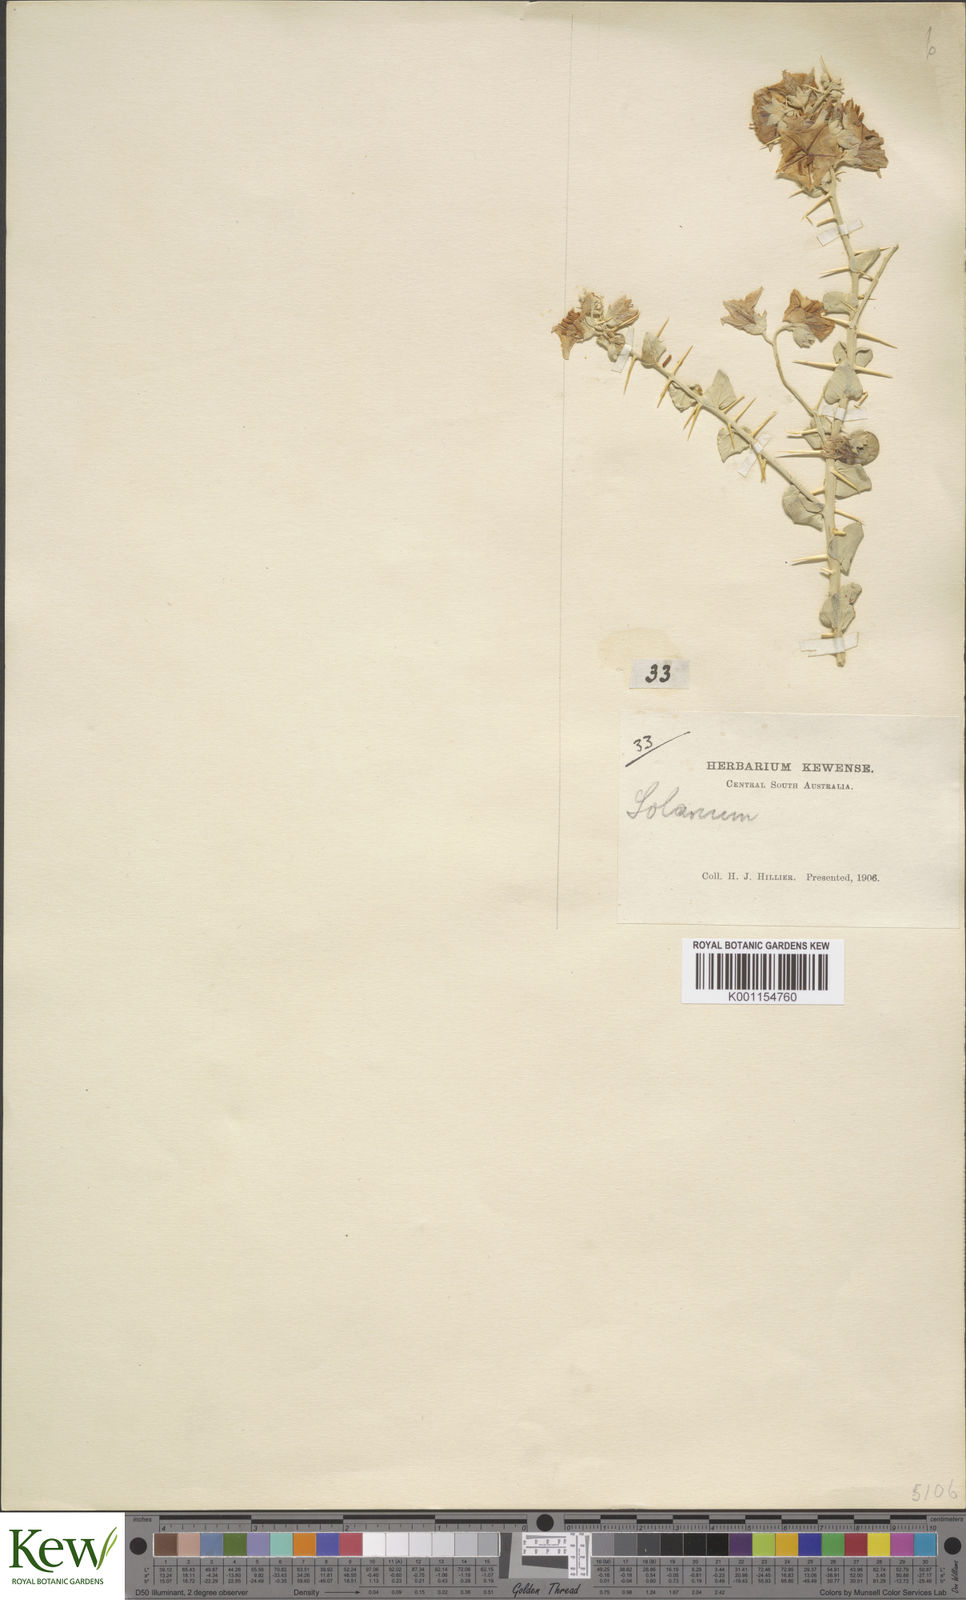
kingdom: Plantae
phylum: Tracheophyta
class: Magnoliopsida
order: Solanales
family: Solanaceae
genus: Solanum
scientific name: Solanum oligacanthum
